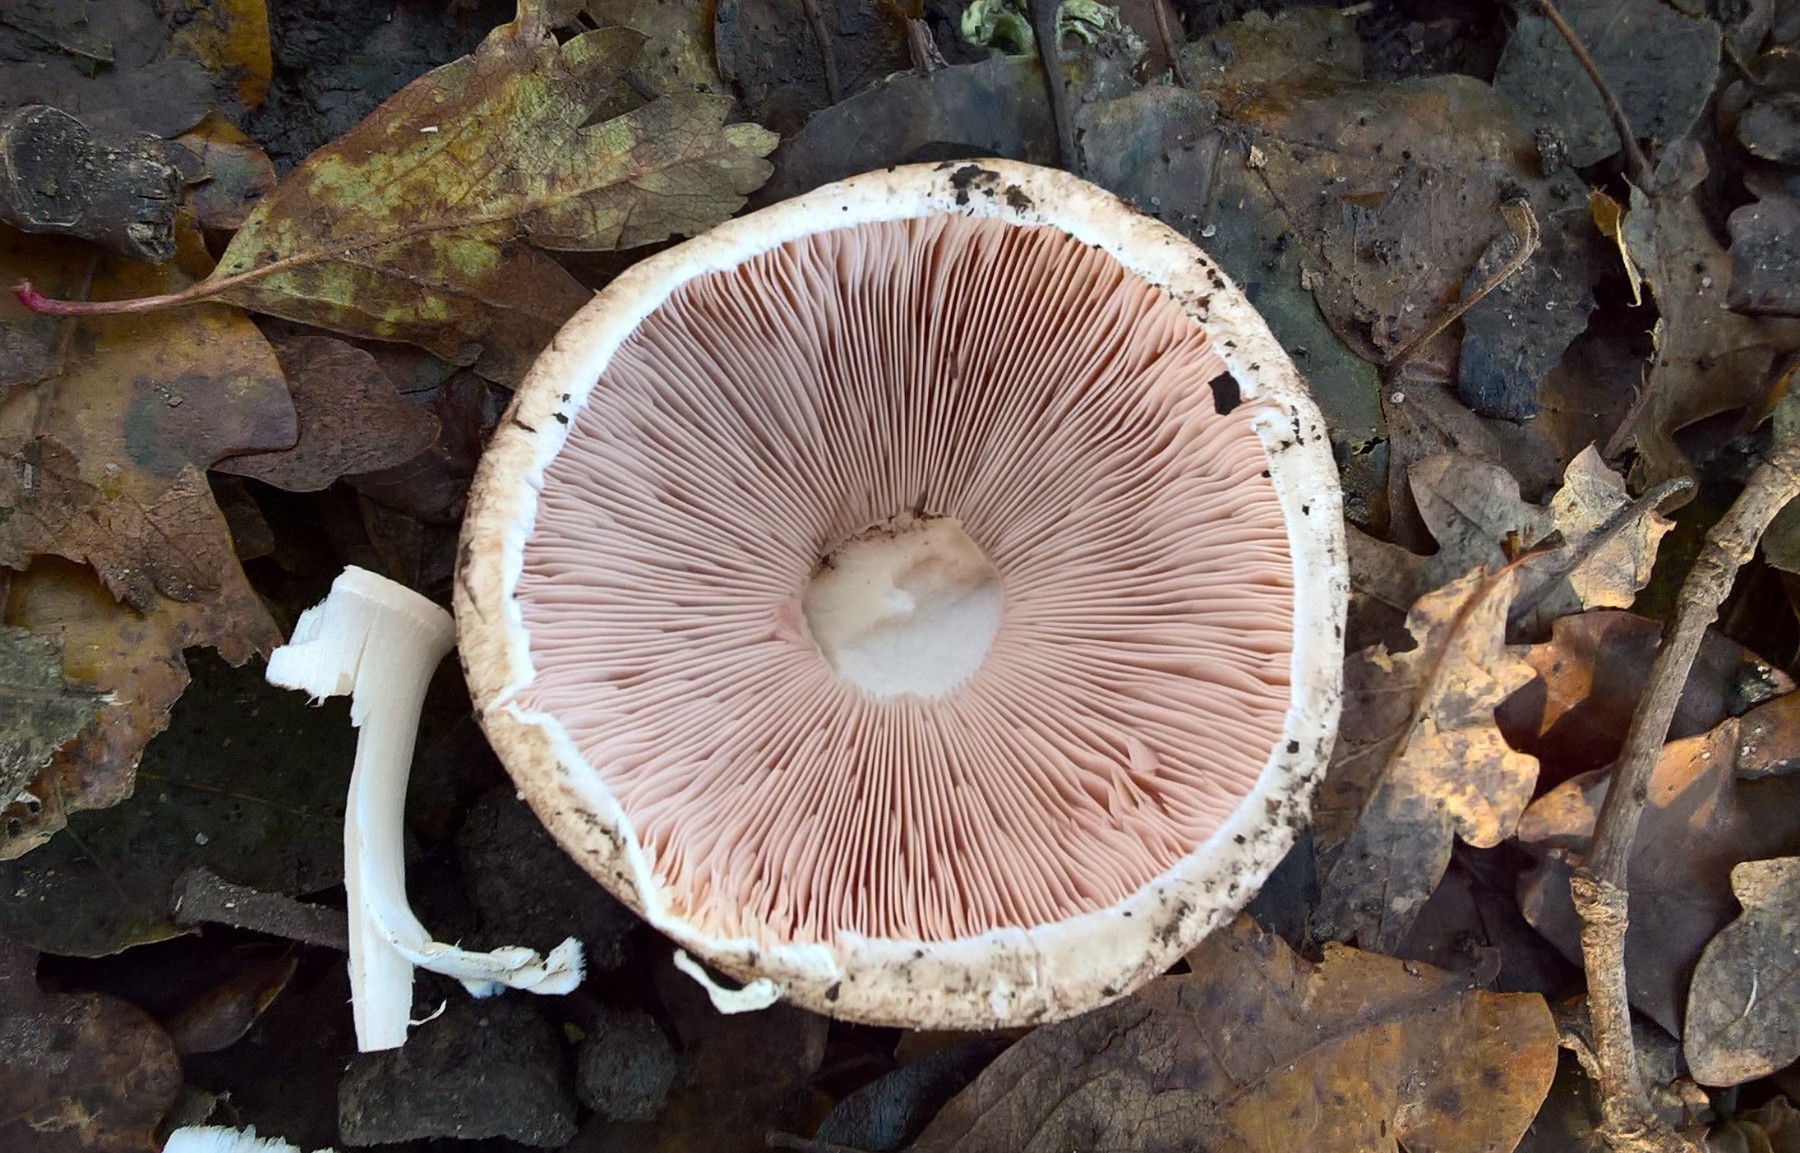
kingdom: Fungi
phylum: Basidiomycota
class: Agaricomycetes
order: Agaricales
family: Agaricaceae
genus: Agaricus
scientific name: Agaricus impudicus
